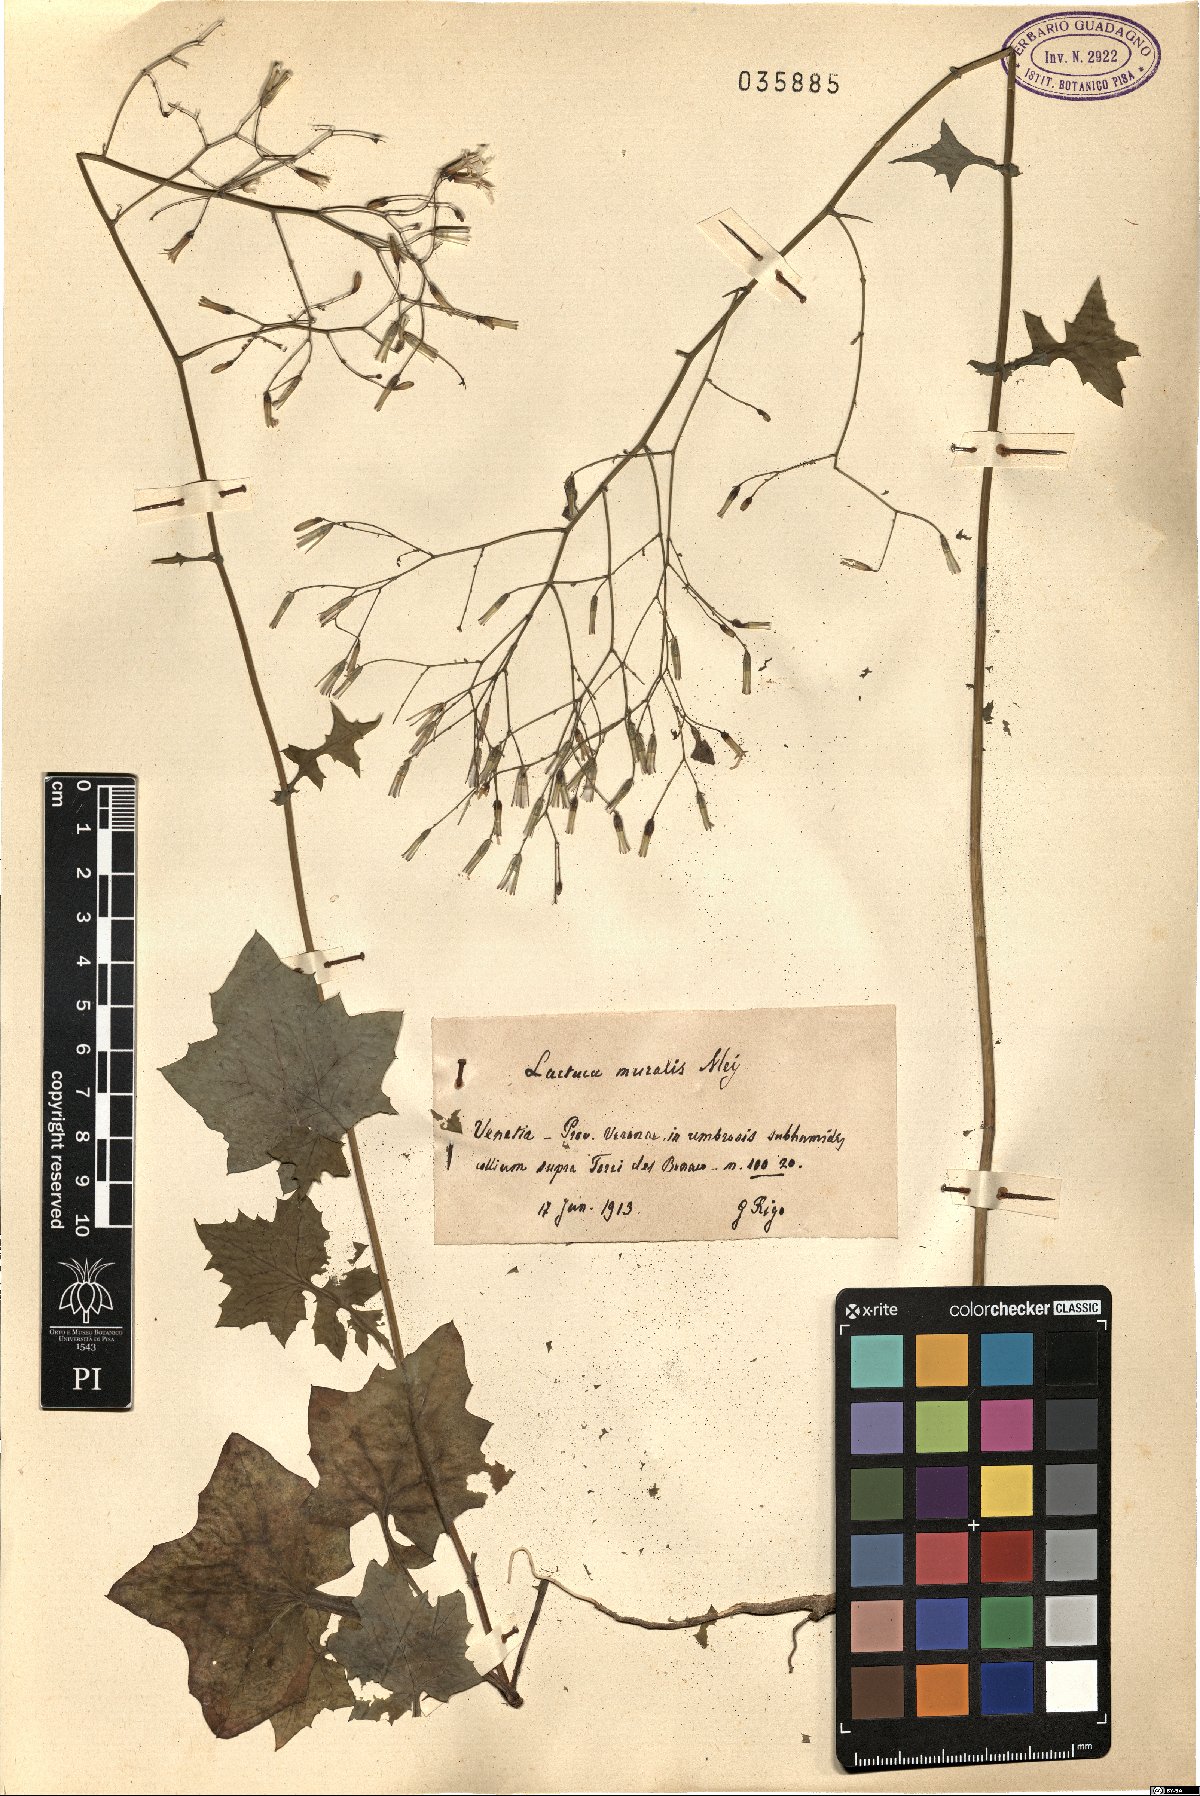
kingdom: Plantae
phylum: Tracheophyta
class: Magnoliopsida
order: Asterales
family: Asteraceae
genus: Mycelis
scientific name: Mycelis muralis
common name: Wall lettuce
